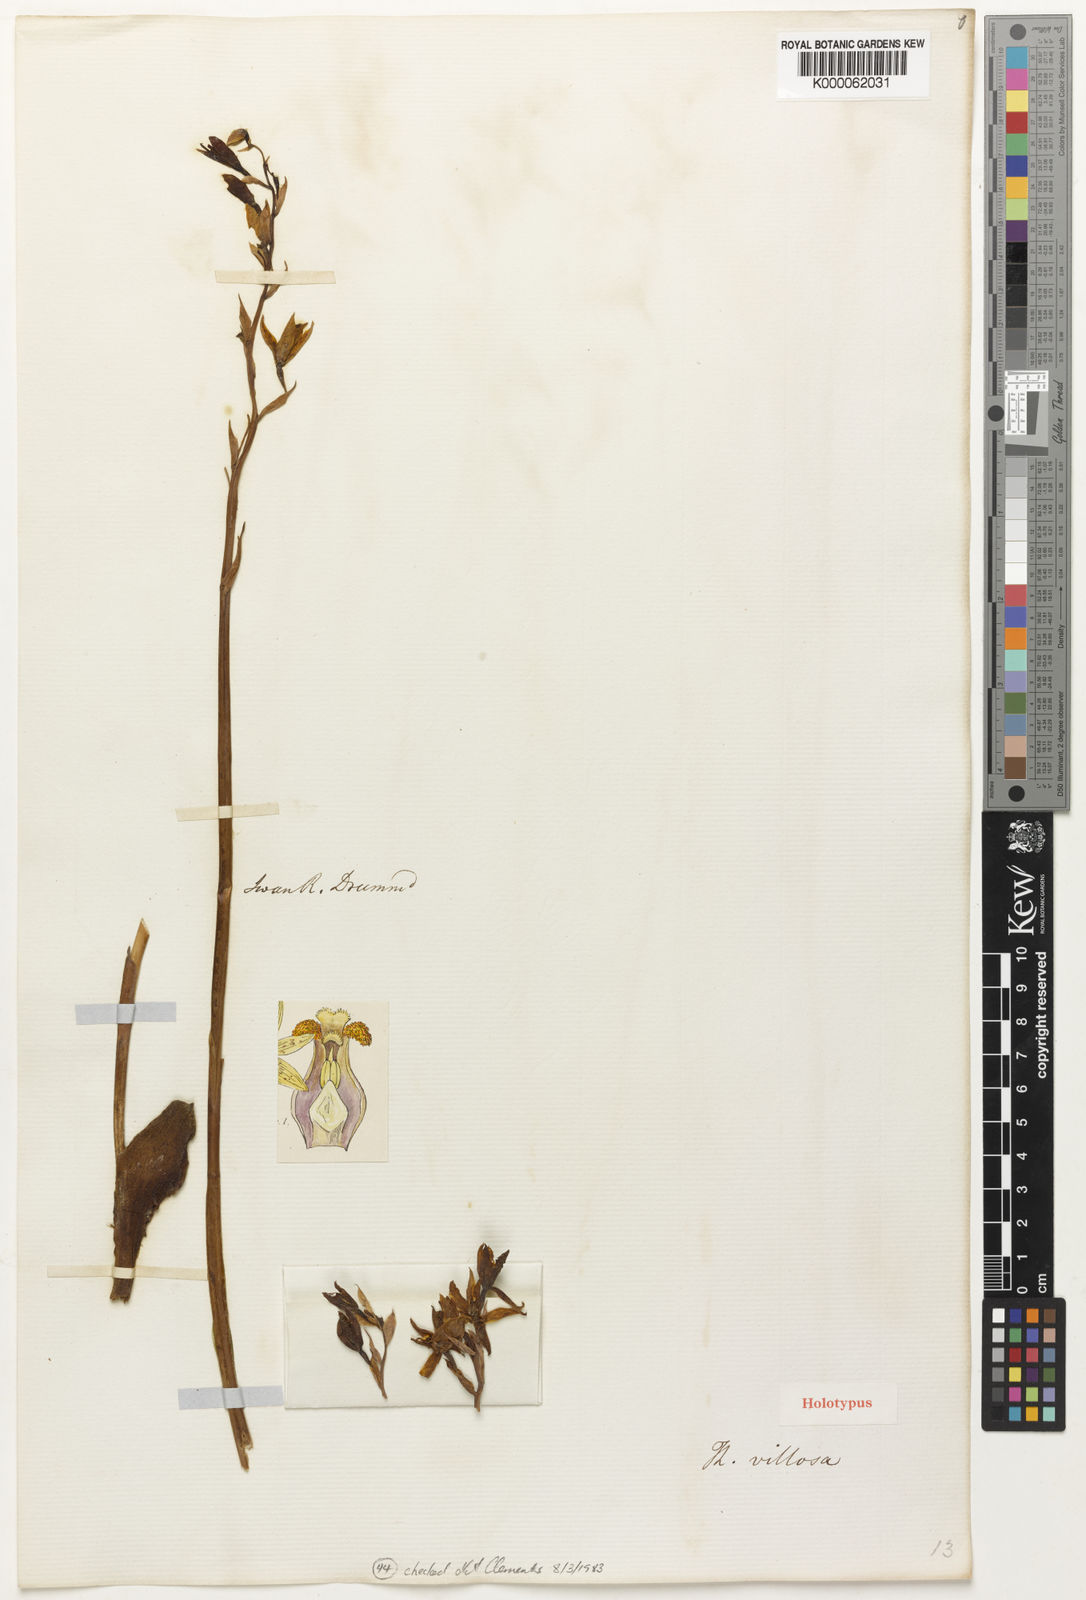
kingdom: Plantae
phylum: Tracheophyta
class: Liliopsida
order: Asparagales
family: Orchidaceae
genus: Thelymitra
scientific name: Thelymitra villosa
